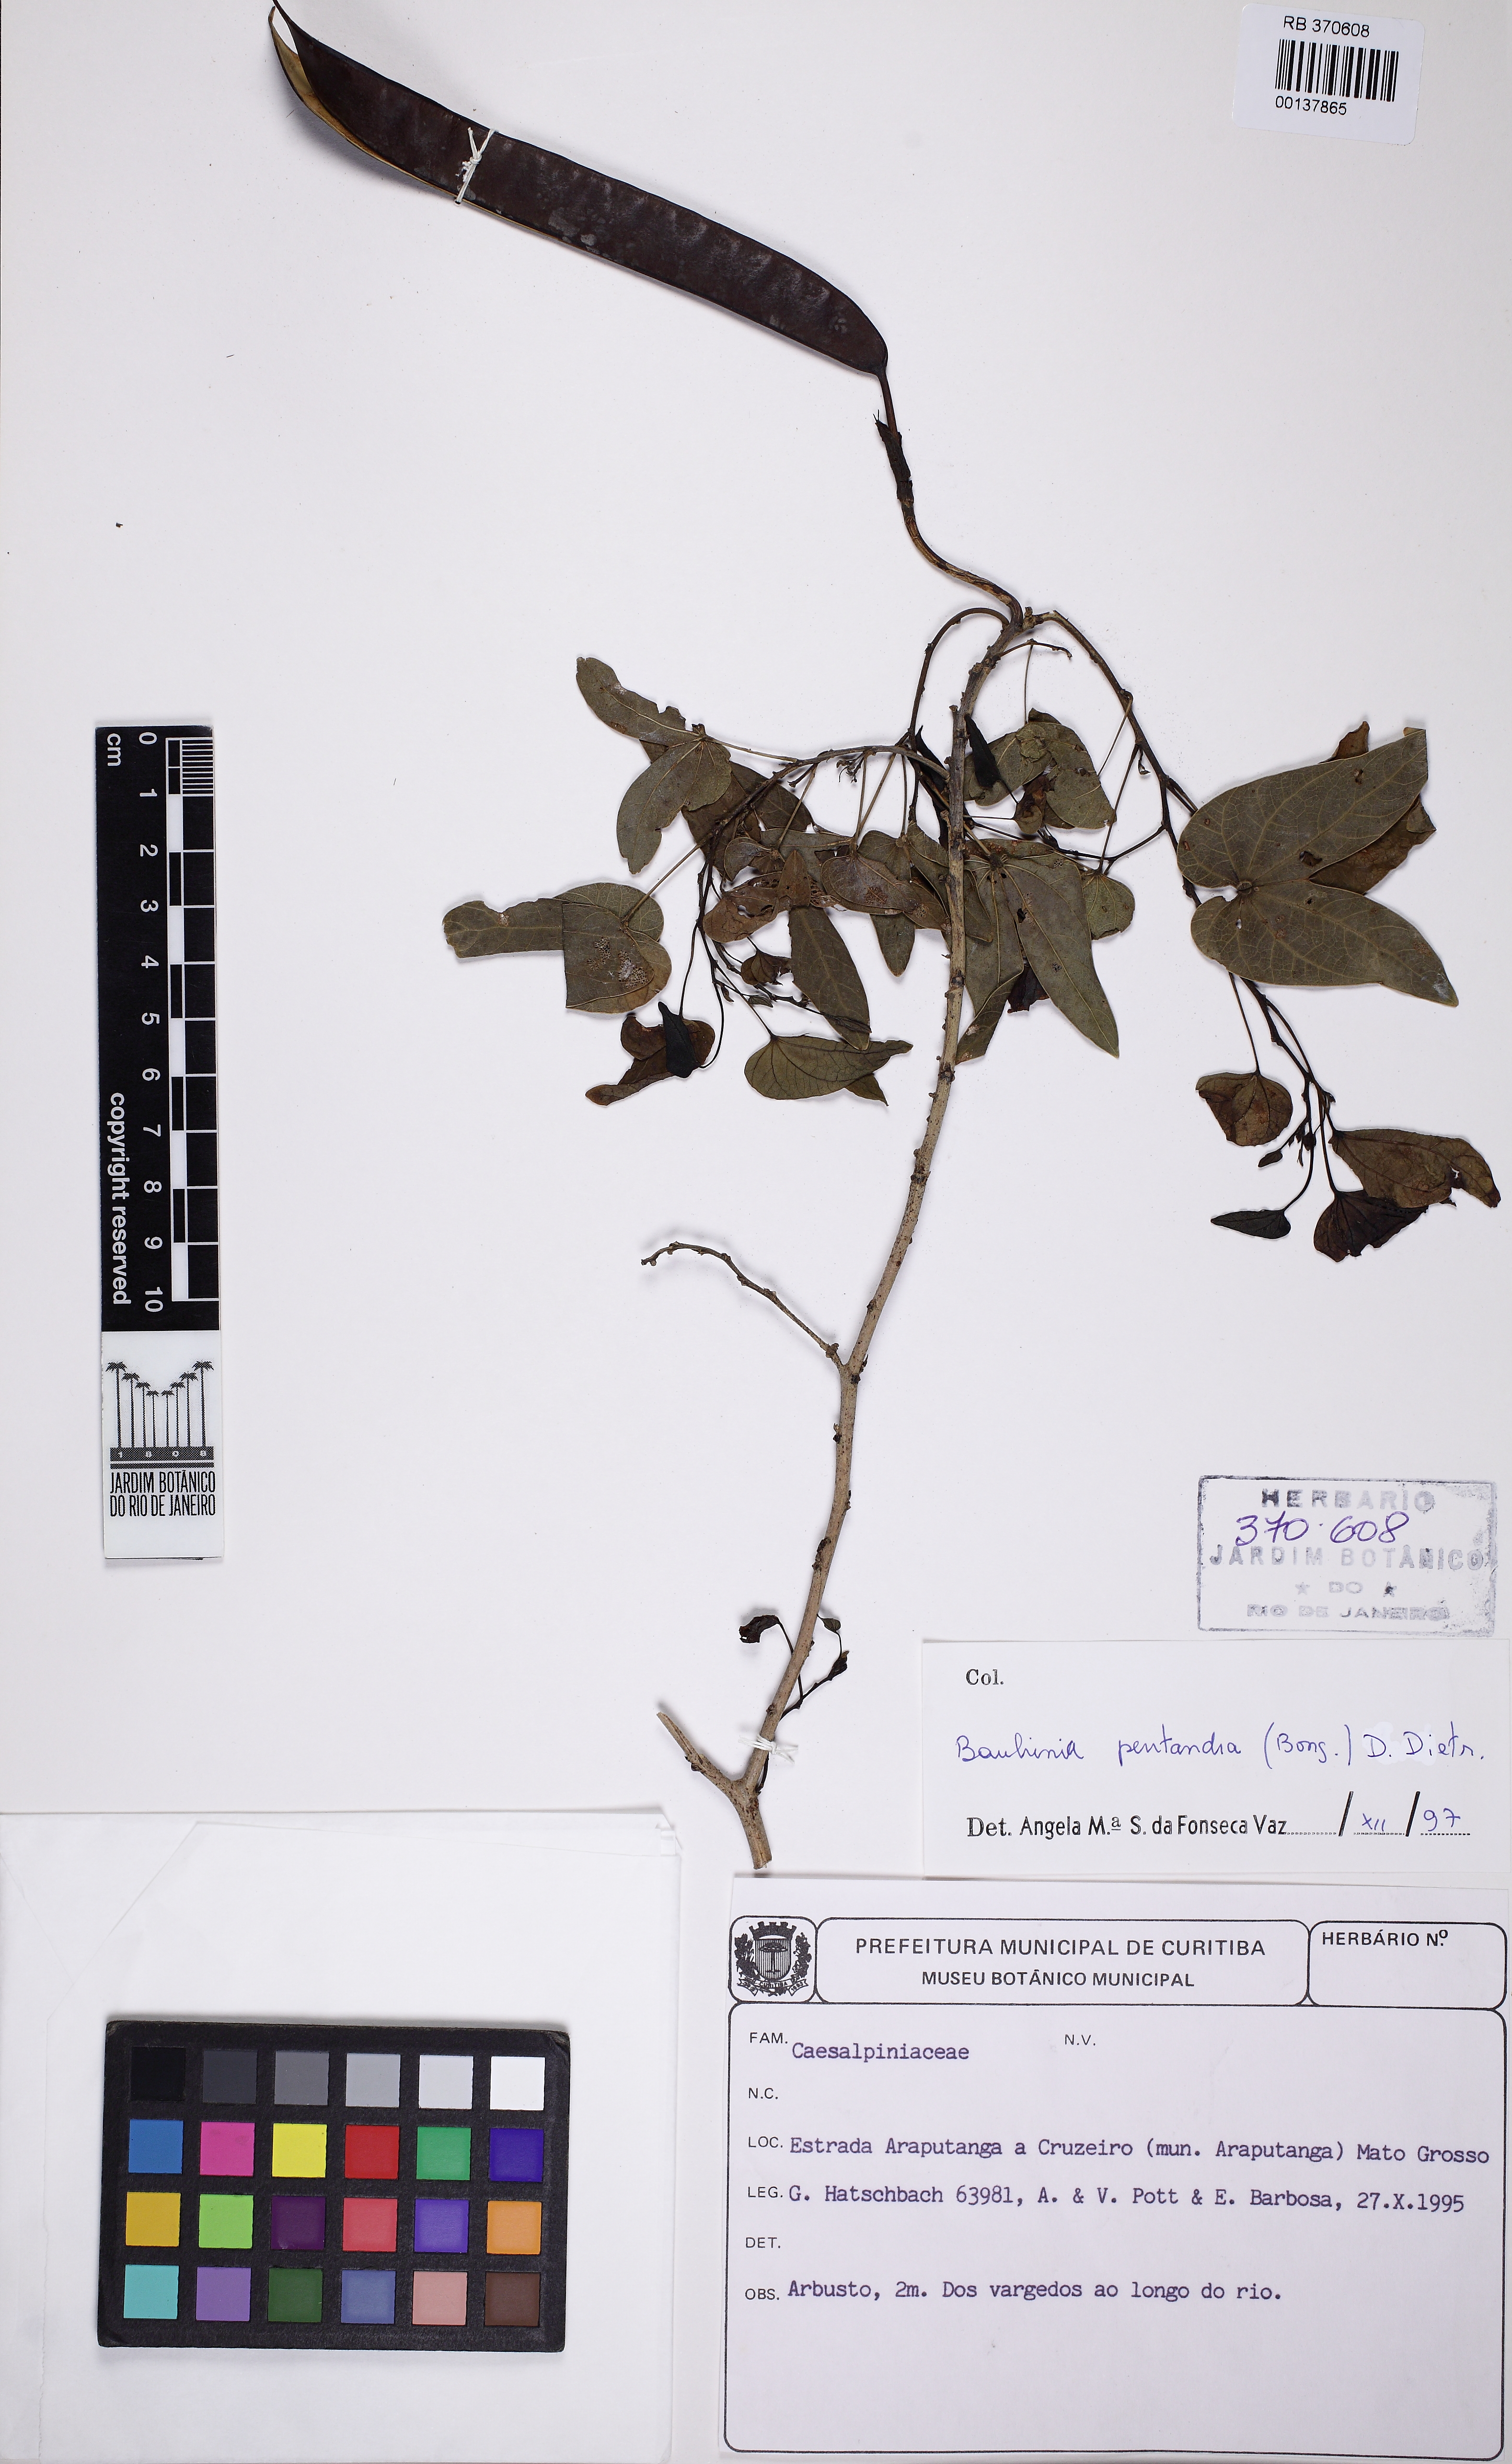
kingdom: Plantae
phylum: Tracheophyta
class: Magnoliopsida
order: Fabales
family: Fabaceae
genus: Bauhinia
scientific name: Bauhinia pentandra
